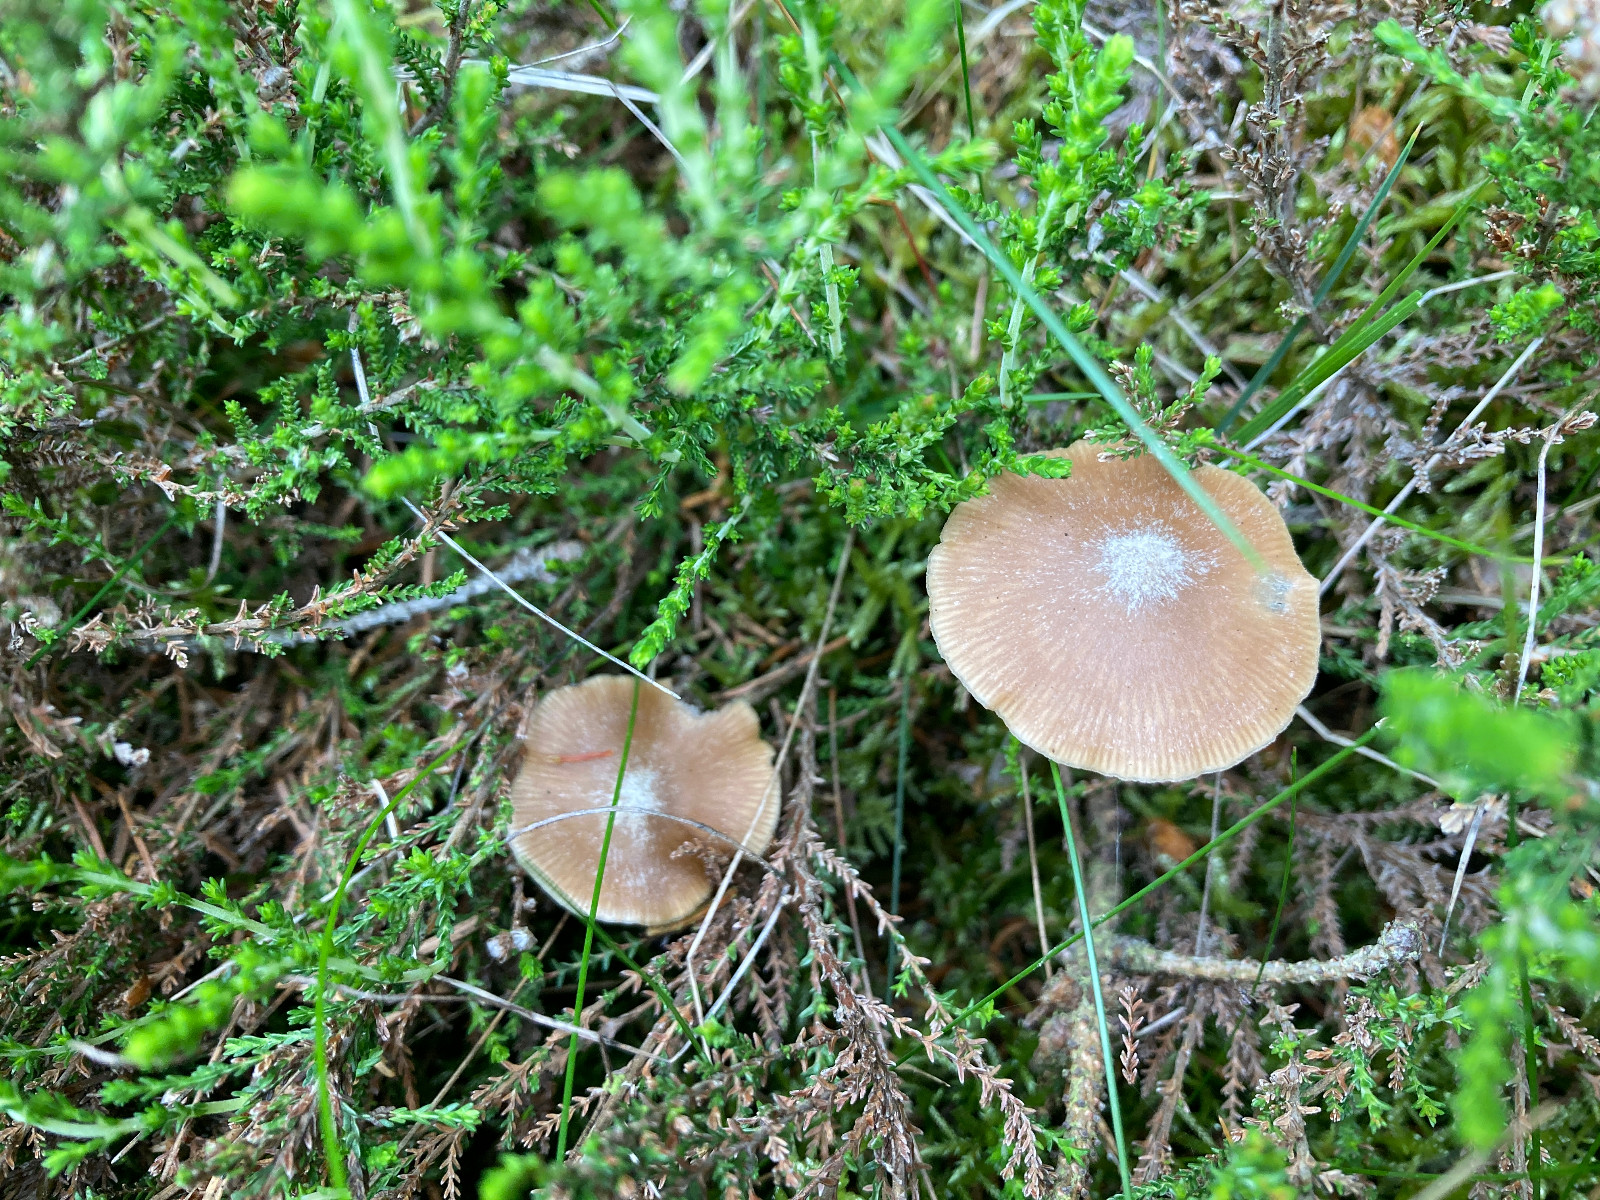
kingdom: Fungi
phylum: Basidiomycota
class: Agaricomycetes
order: Agaricales
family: Entolomataceae
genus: Entoloma
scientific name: Entoloma
